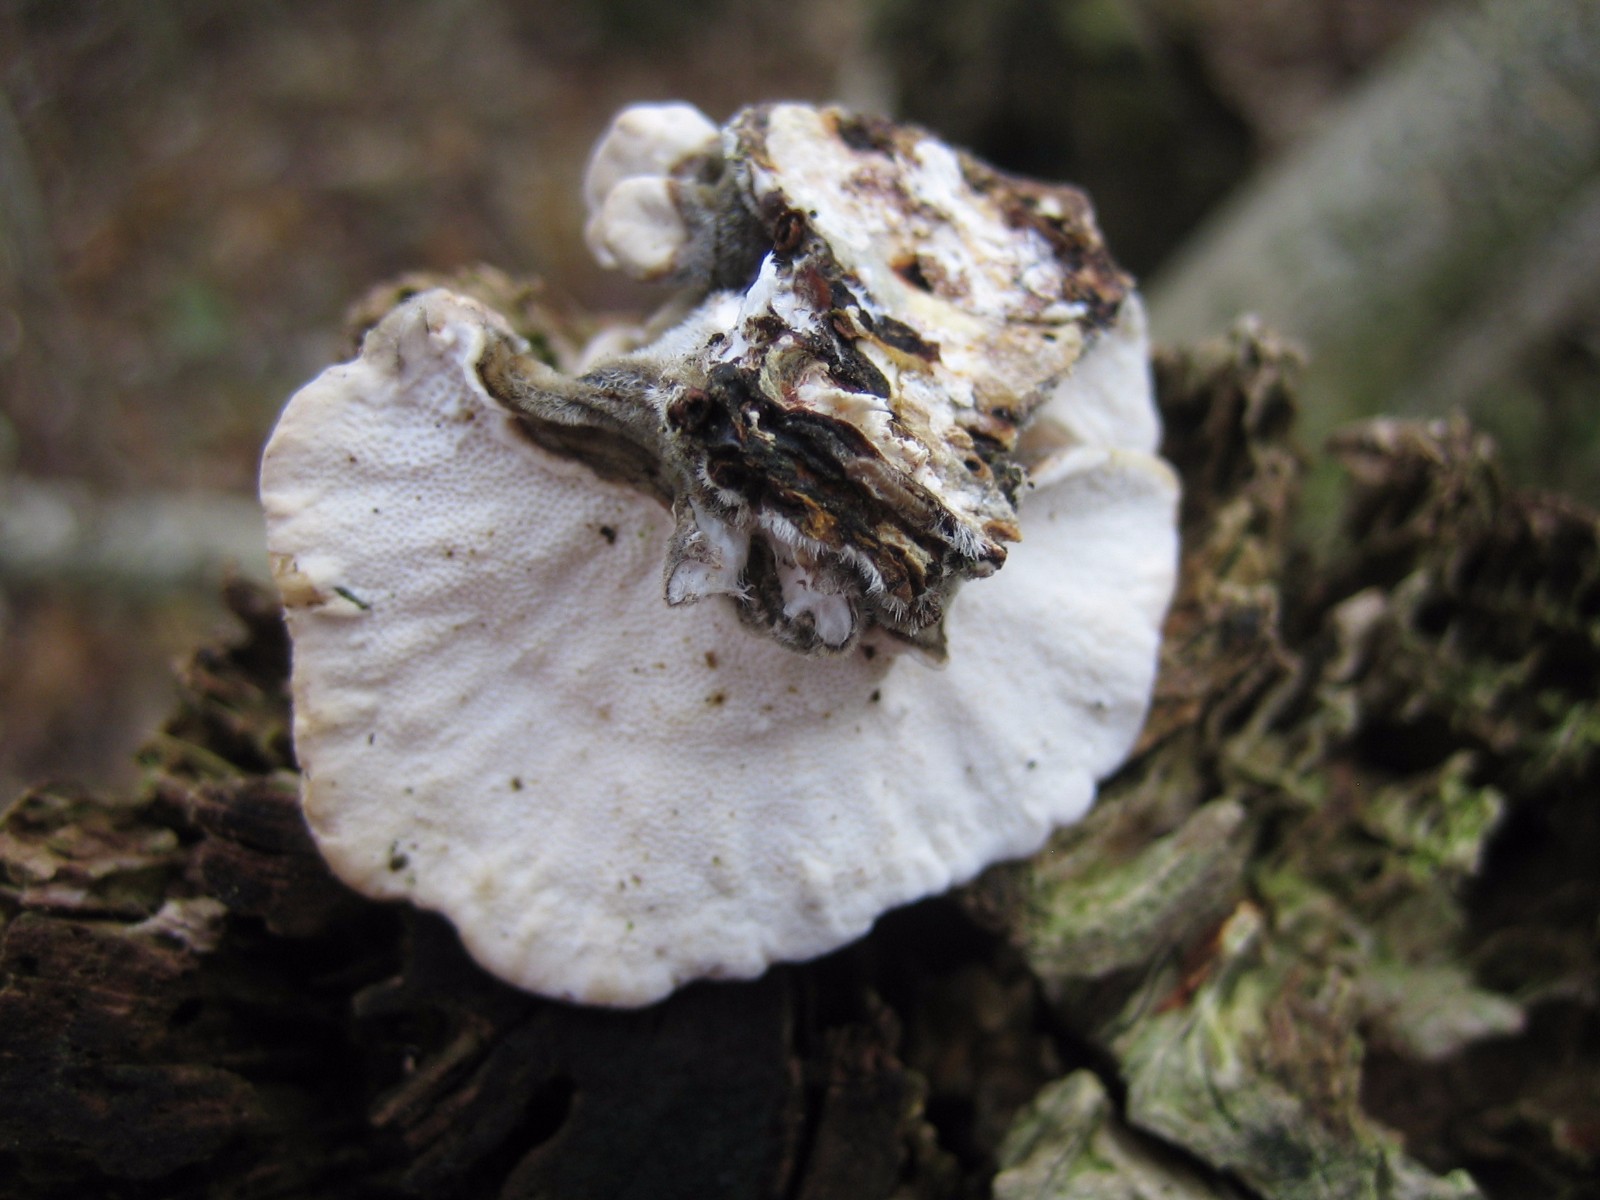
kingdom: Fungi
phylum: Basidiomycota
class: Agaricomycetes
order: Polyporales
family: Polyporaceae
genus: Trametes
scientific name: Trametes versicolor
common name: broget læderporesvamp
